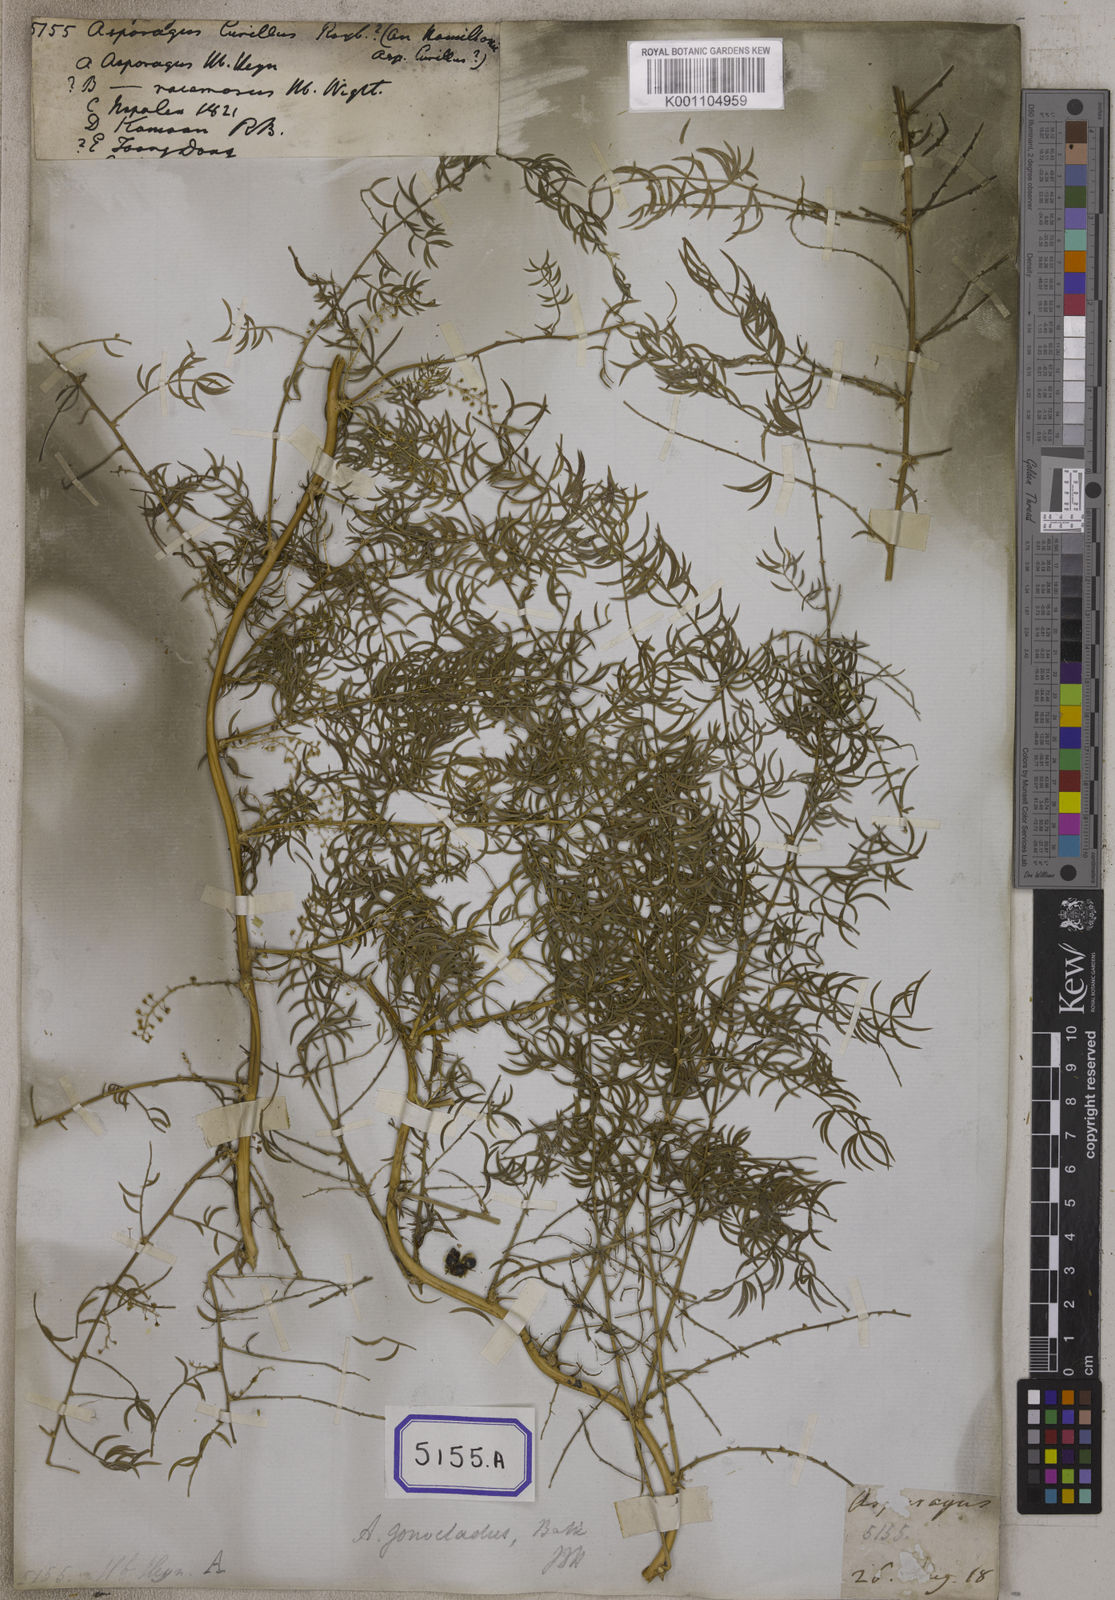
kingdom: Plantae
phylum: Tracheophyta
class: Liliopsida
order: Asparagales
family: Asparagaceae
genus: Asparagus
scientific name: Asparagus
